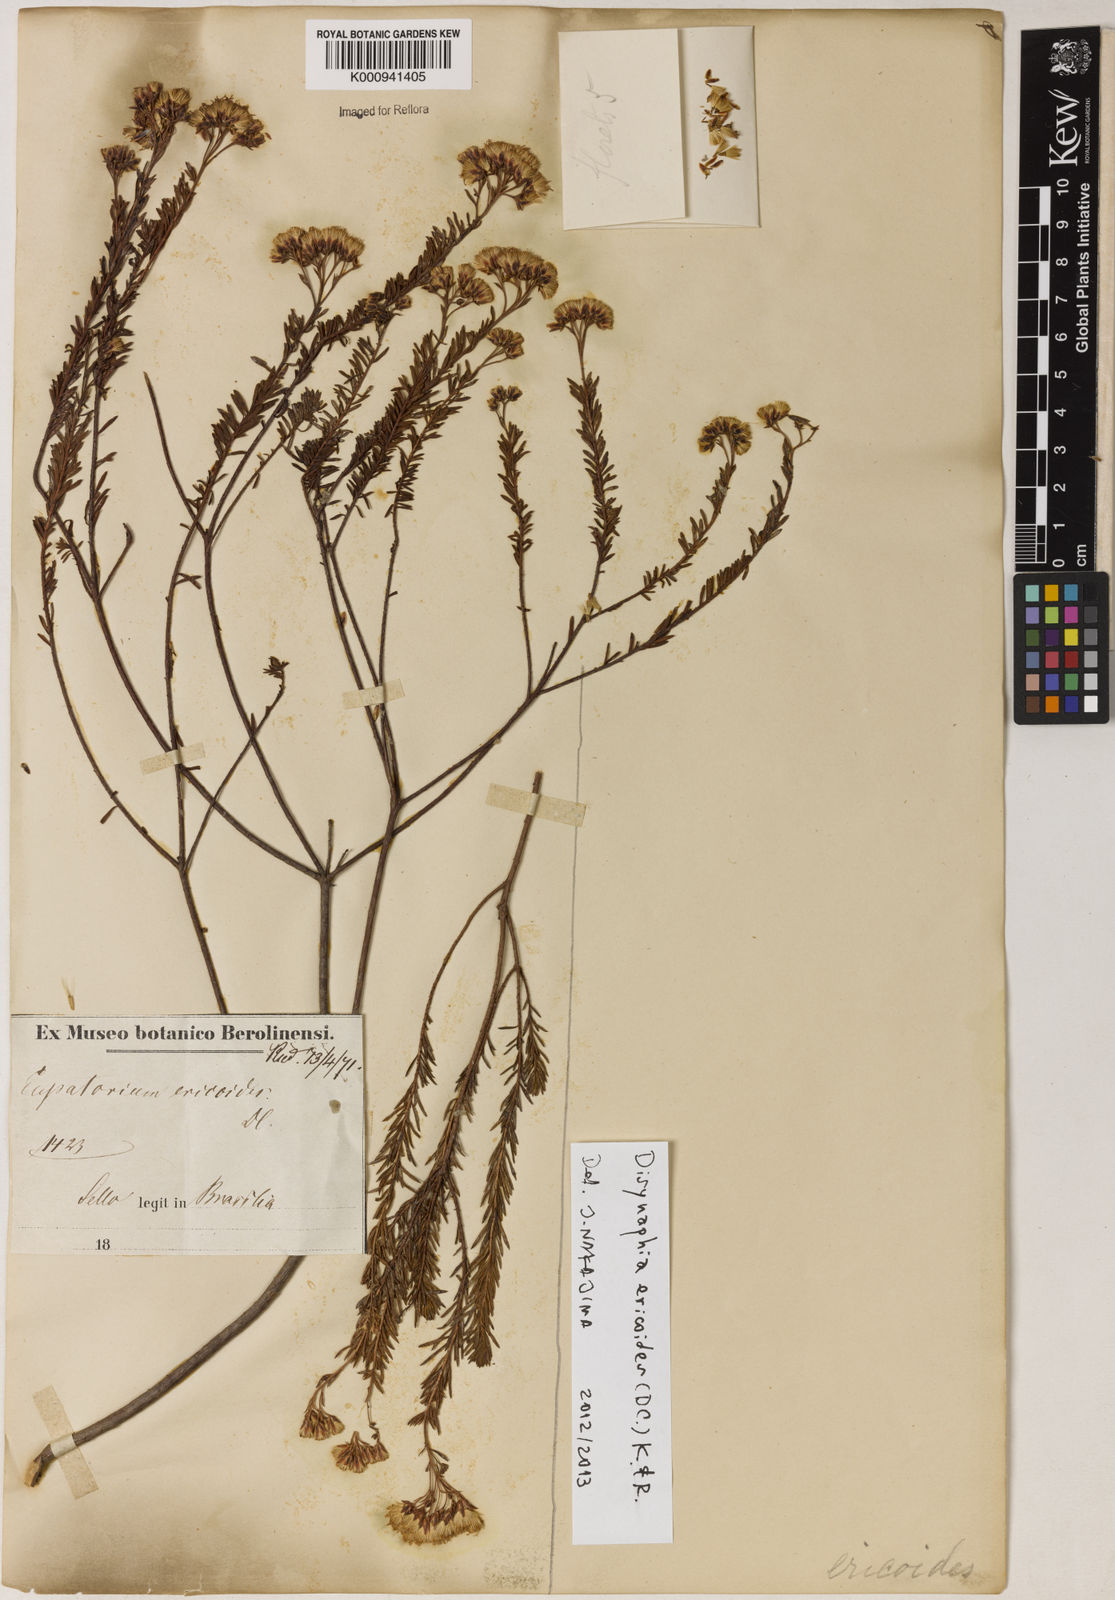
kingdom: Plantae
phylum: Tracheophyta
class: Magnoliopsida
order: Asterales
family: Asteraceae
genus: Disynaphia
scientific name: Disynaphia ericoides
